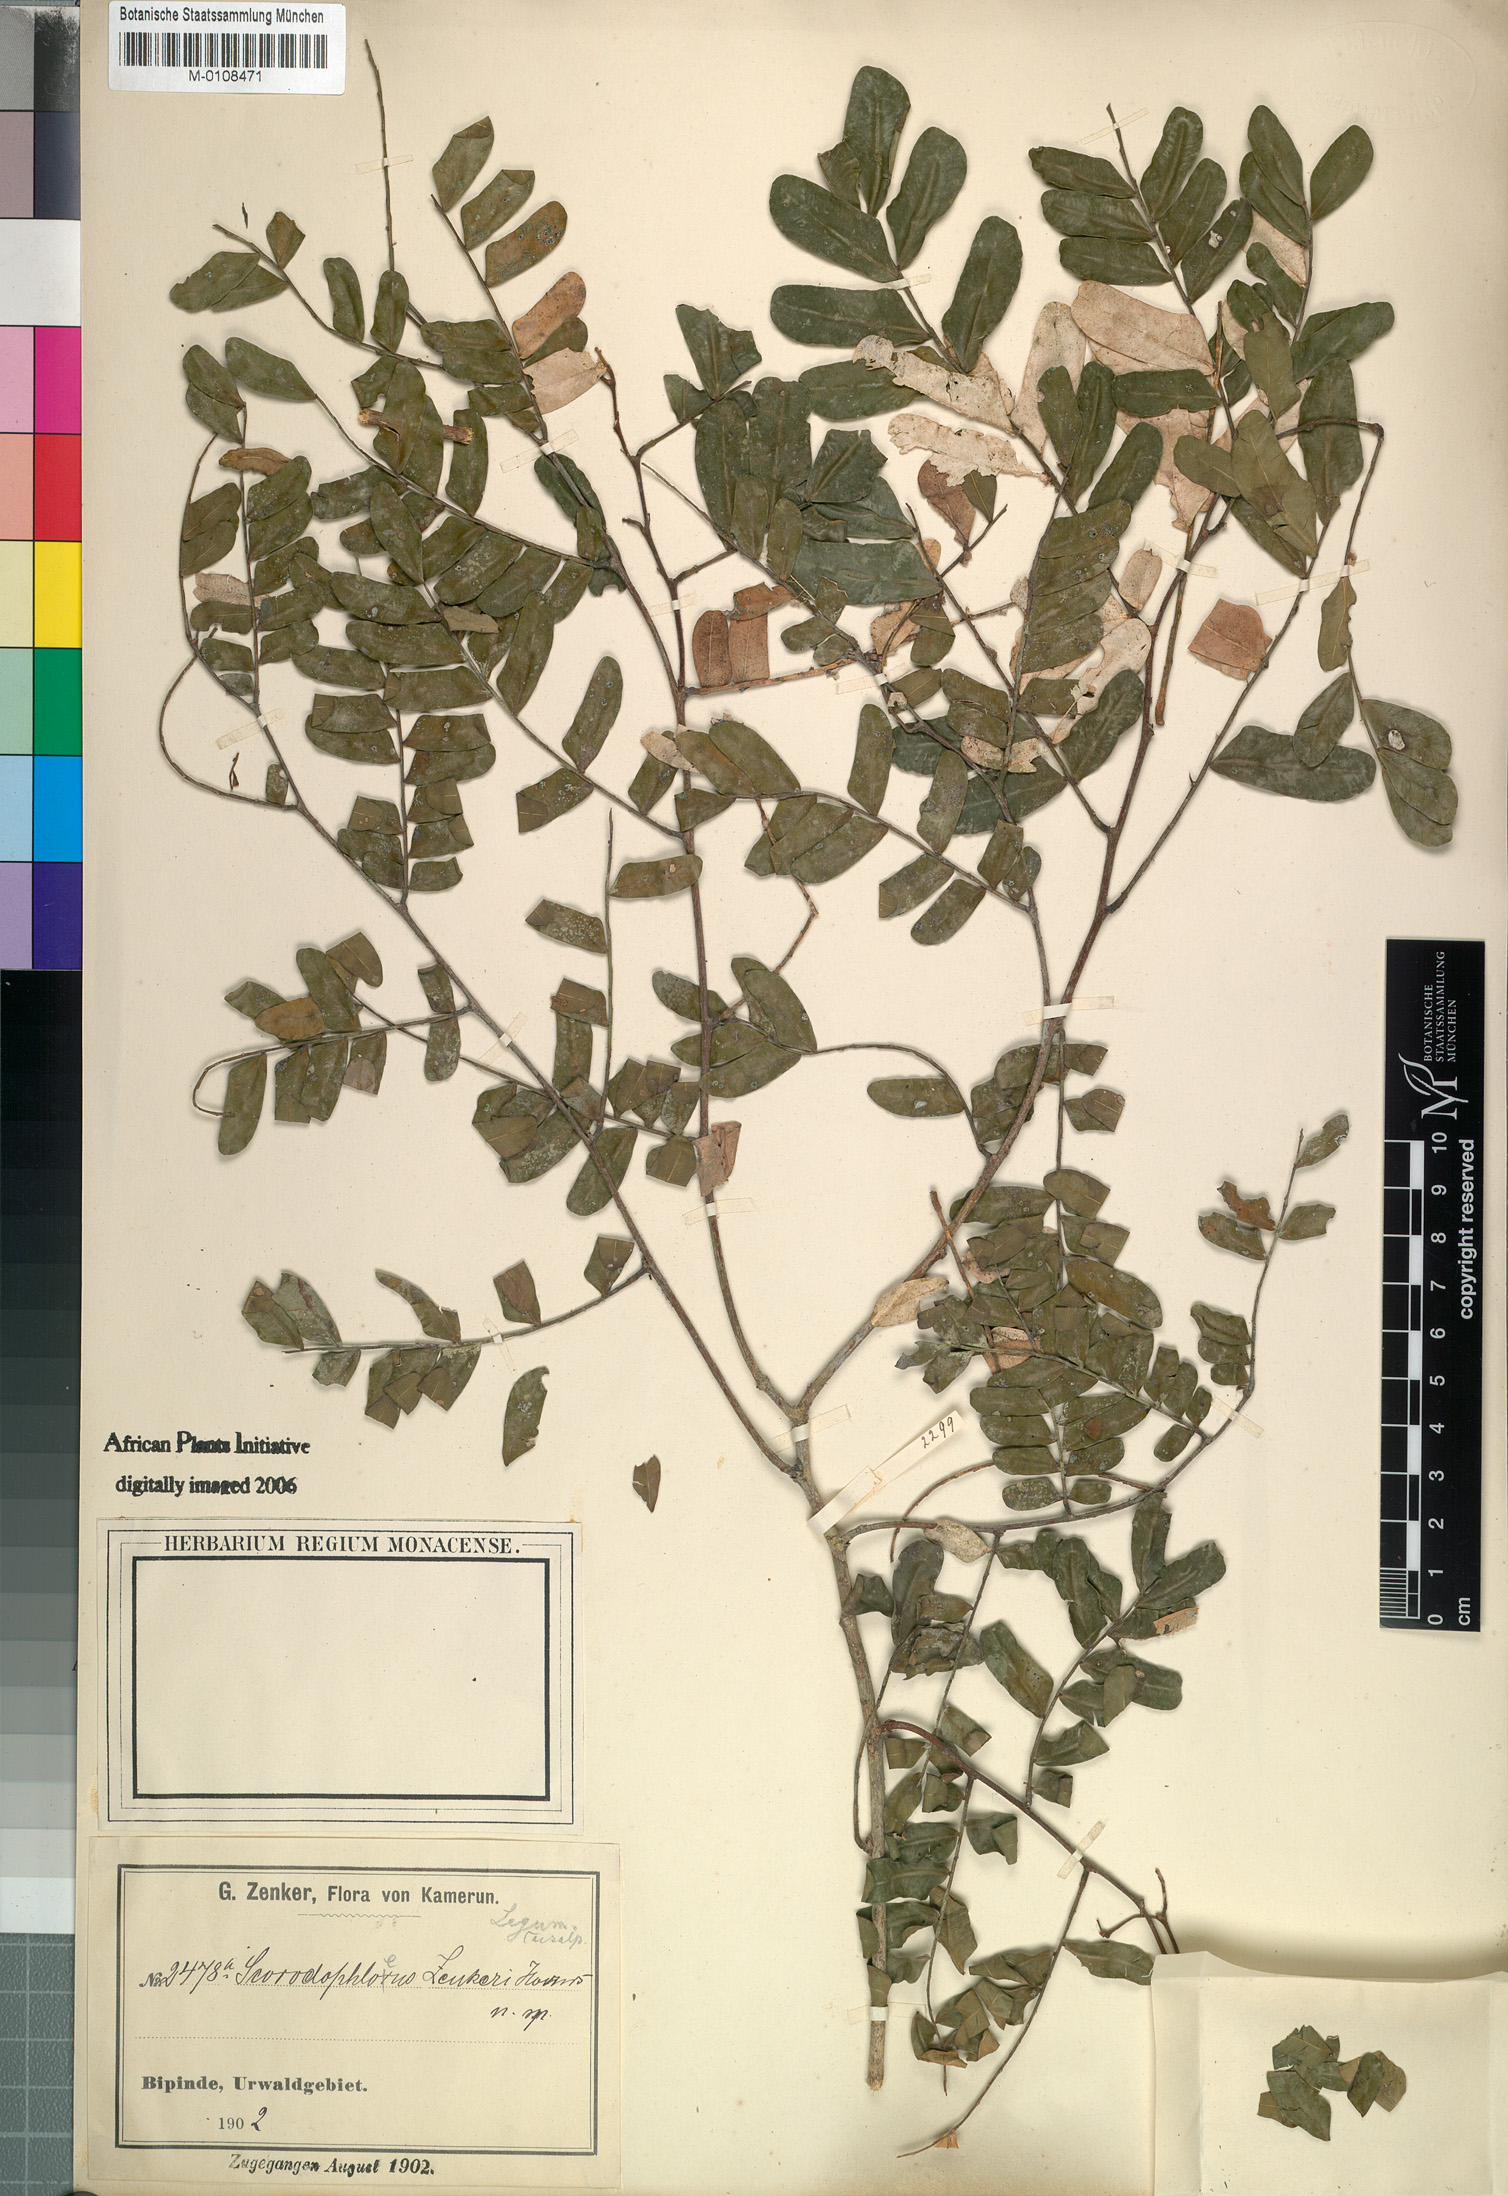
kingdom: Plantae
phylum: Tracheophyta
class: Magnoliopsida
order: Fabales
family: Fabaceae
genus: Scorodophloeus
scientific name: Scorodophloeus zenkeri
